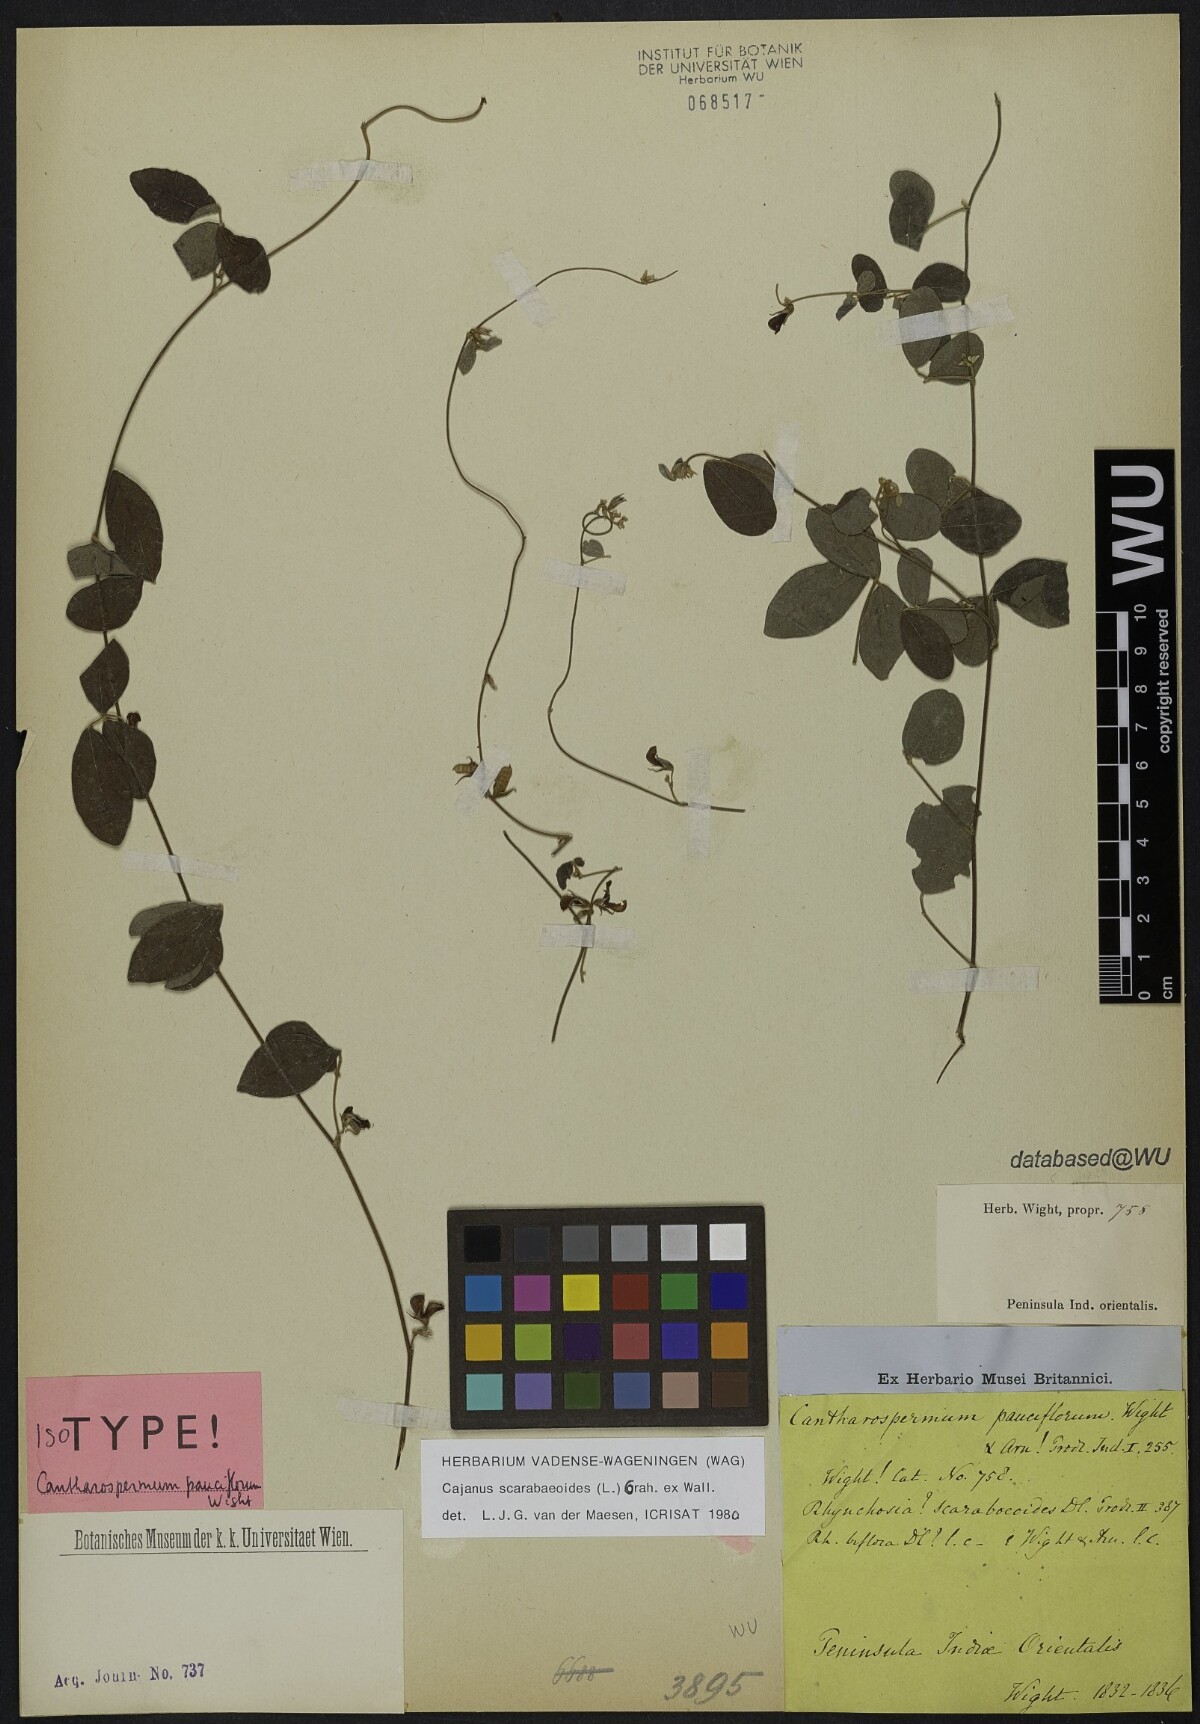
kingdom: Plantae
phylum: Tracheophyta
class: Magnoliopsida
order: Fabales
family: Fabaceae
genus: Cajanus
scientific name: Cajanus scarabaeoides
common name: Showy pigeonpea
